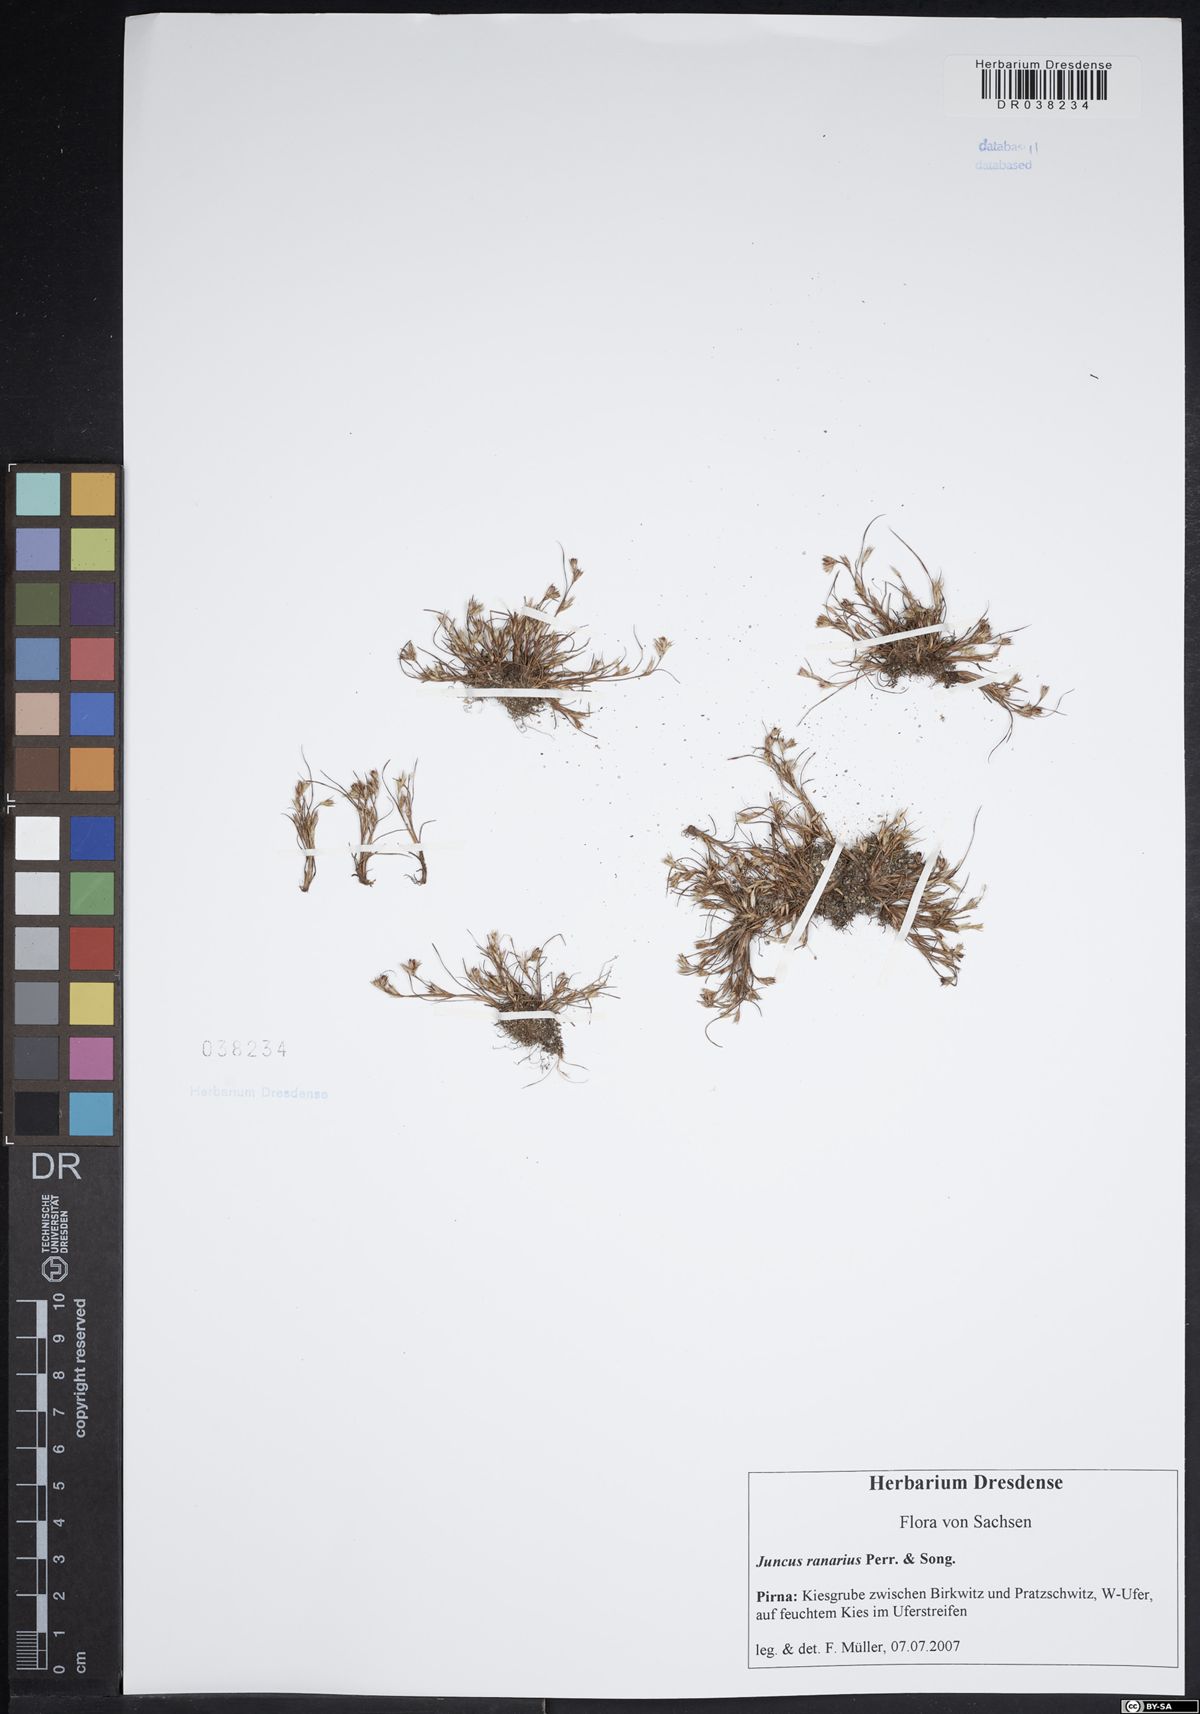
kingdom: Plantae
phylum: Tracheophyta
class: Liliopsida
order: Poales
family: Juncaceae
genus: Juncus
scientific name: Juncus ranarius
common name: Frog rush
